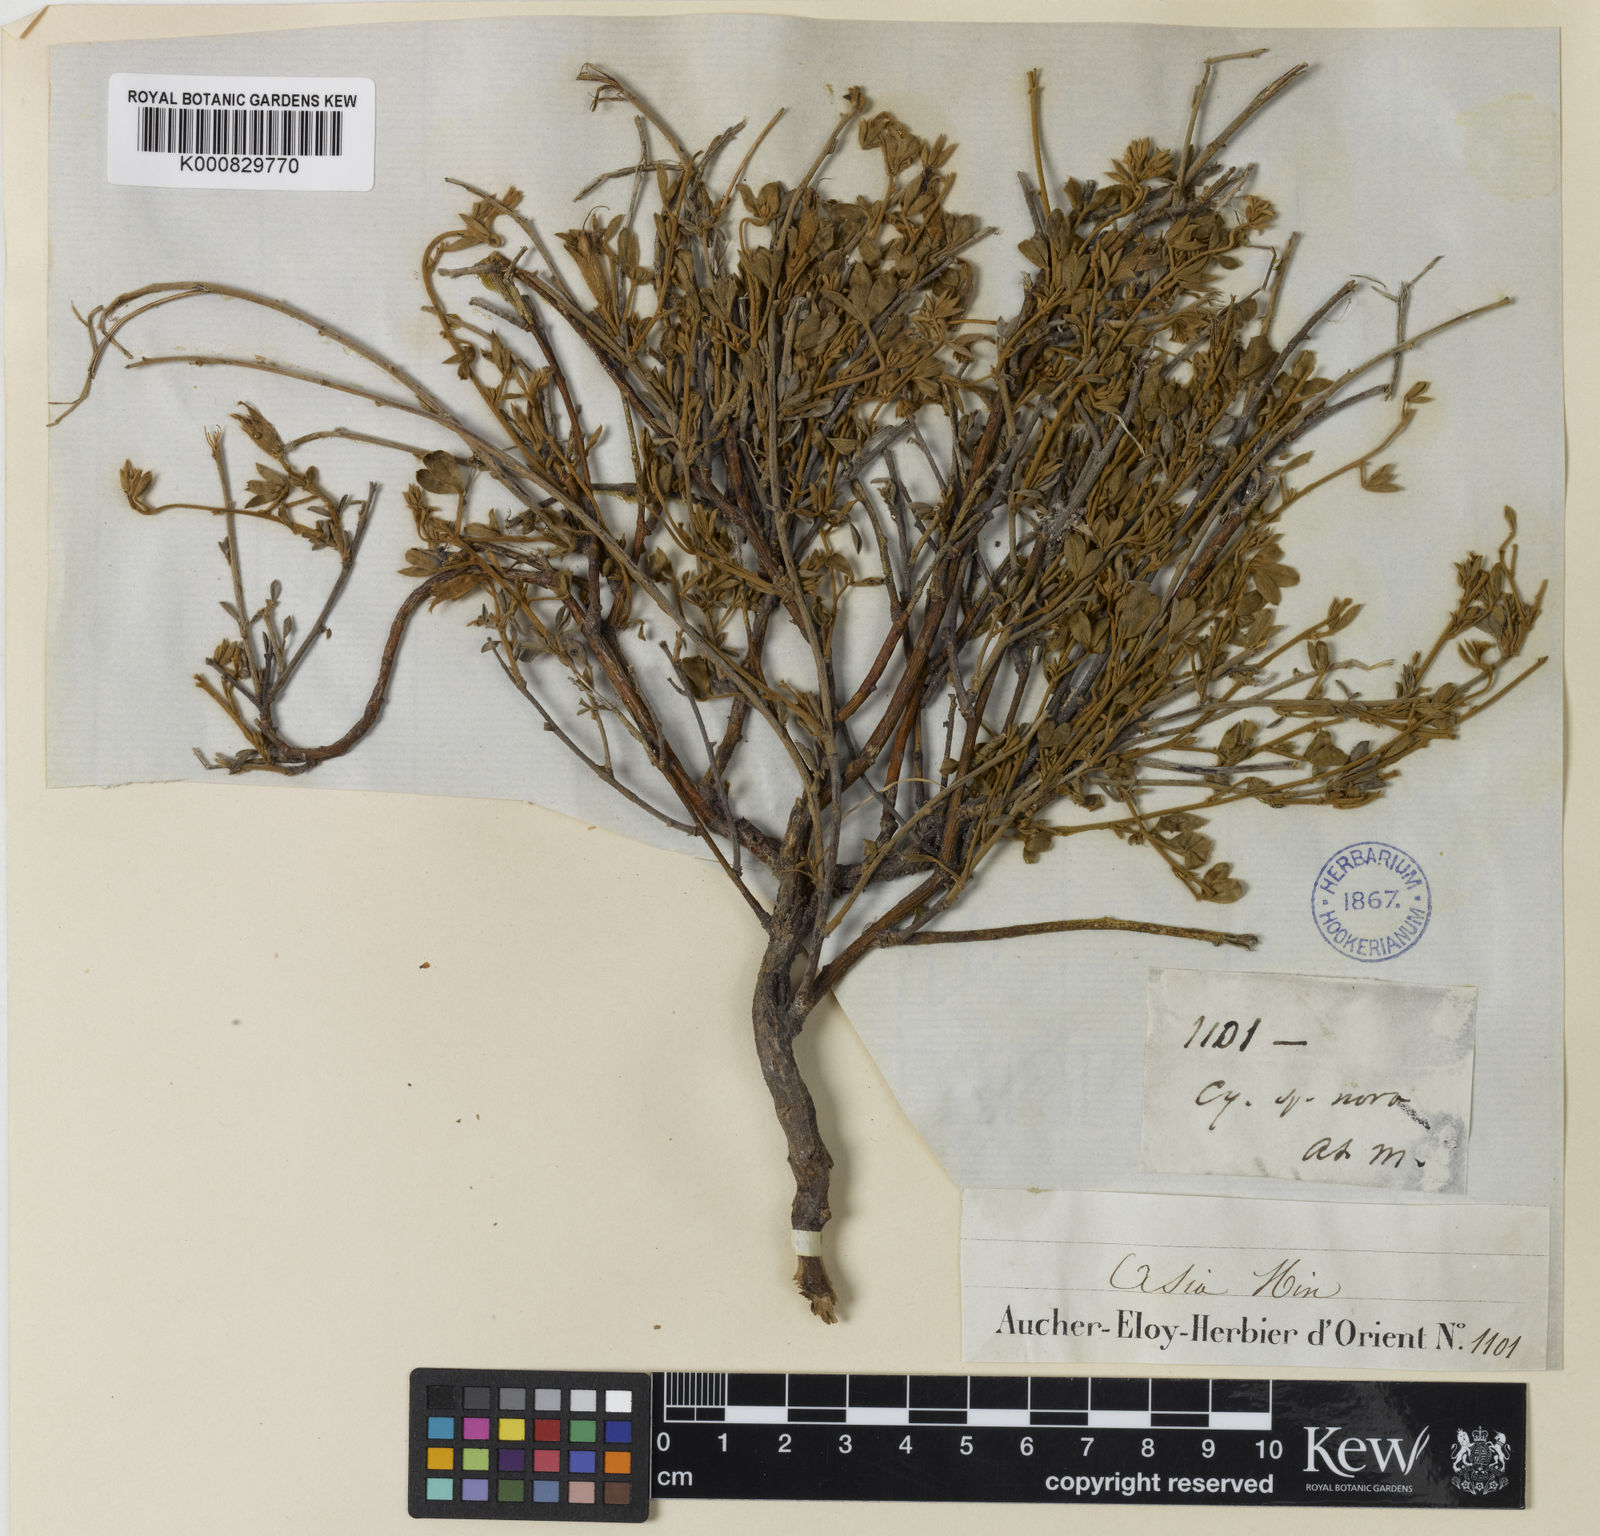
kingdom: Plantae
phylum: Tracheophyta
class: Magnoliopsida
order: Fabales
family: Fabaceae
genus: Chamaecytisus
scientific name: Chamaecytisus eriocarpus
